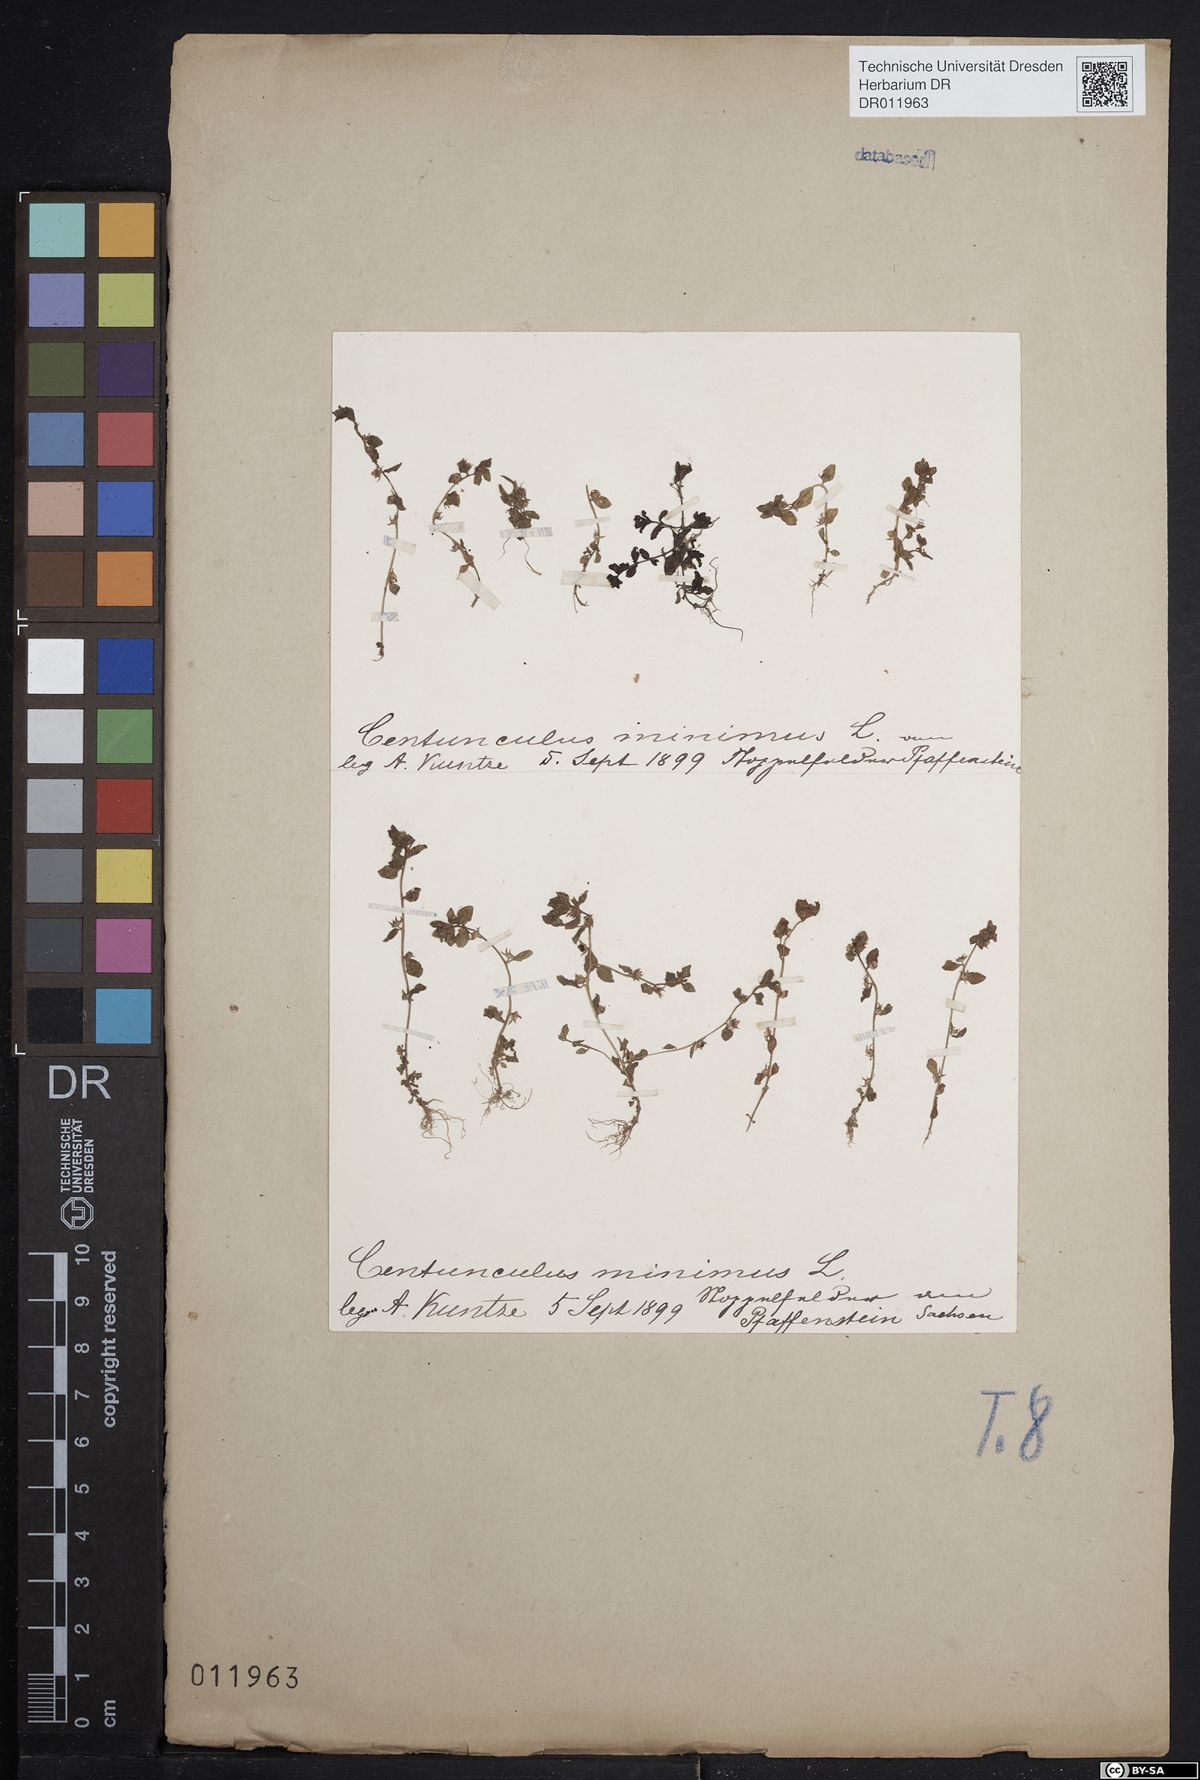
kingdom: Plantae
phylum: Tracheophyta
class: Magnoliopsida
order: Ericales
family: Primulaceae
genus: Lysimachia
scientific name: Lysimachia minima
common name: Chaffweed
